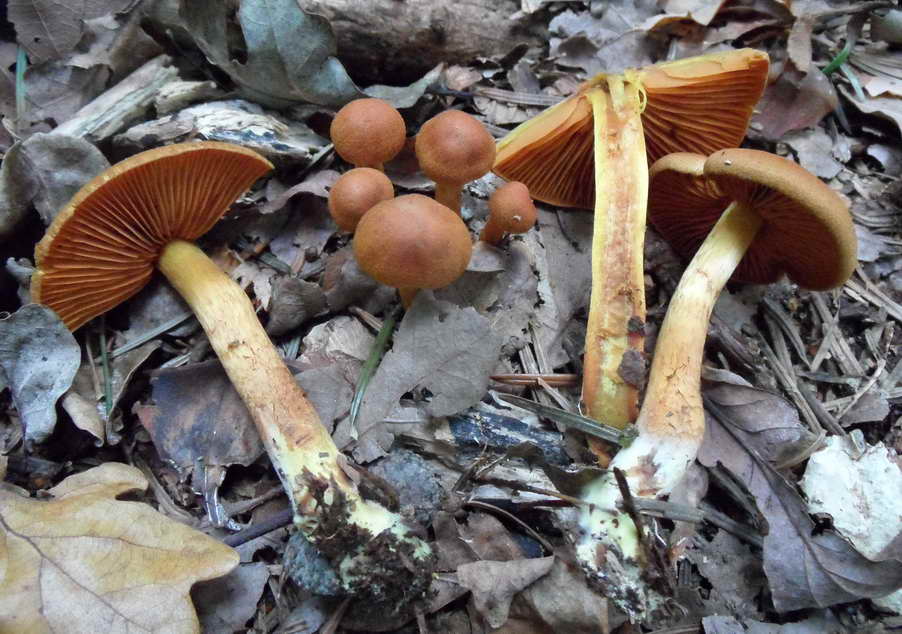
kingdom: Fungi
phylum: Basidiomycota
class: Agaricomycetes
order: Agaricales
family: Cortinariaceae
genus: Cortinarius
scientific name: Cortinarius malicorius
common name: grønkødet slørhat
